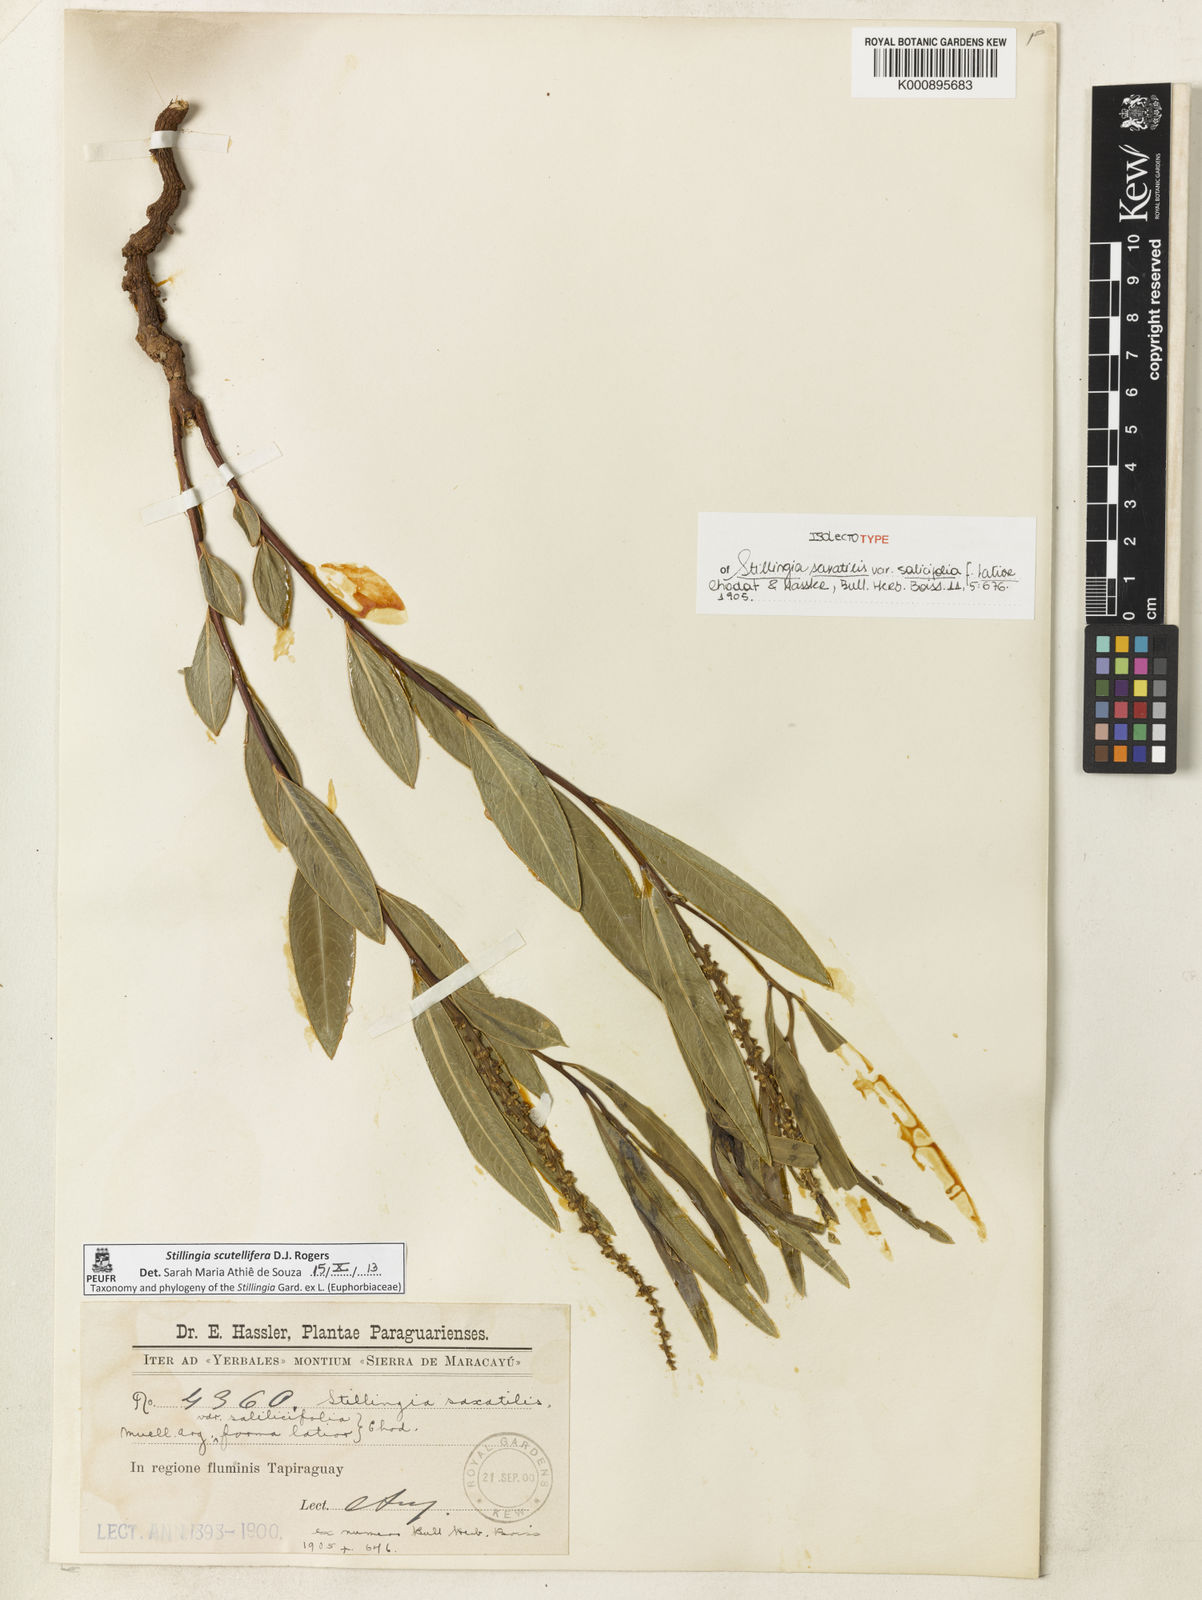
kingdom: Plantae
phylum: Tracheophyta
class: Magnoliopsida
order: Malpighiales
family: Euphorbiaceae
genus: Stillingia
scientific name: Stillingia salpingadenia
